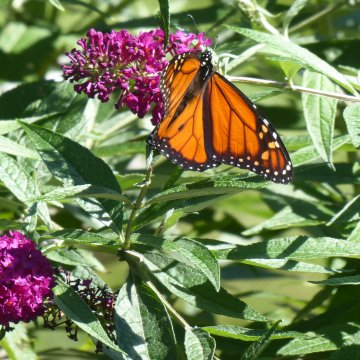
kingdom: Animalia
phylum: Arthropoda
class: Insecta
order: Lepidoptera
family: Nymphalidae
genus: Danaus
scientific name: Danaus plexippus
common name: Monarch
